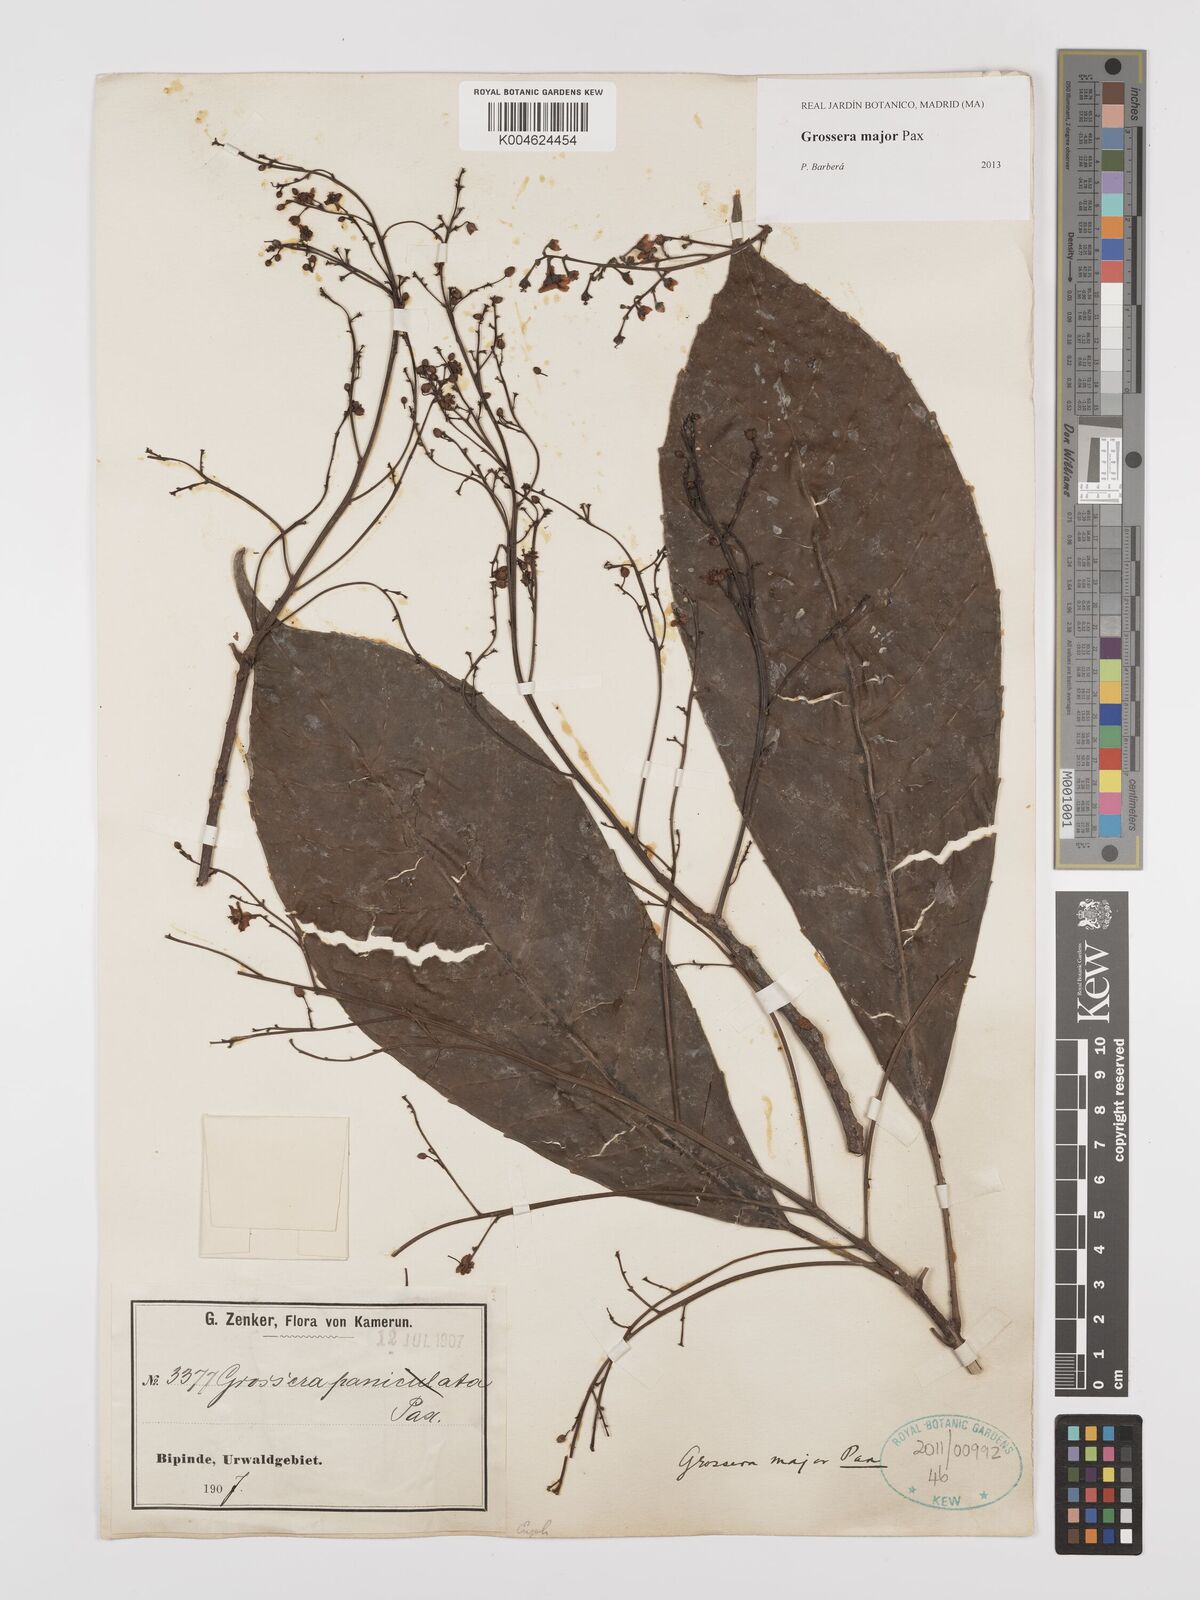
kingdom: Plantae
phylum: Tracheophyta
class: Magnoliopsida
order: Malpighiales
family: Euphorbiaceae
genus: Grossera
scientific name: Grossera major
